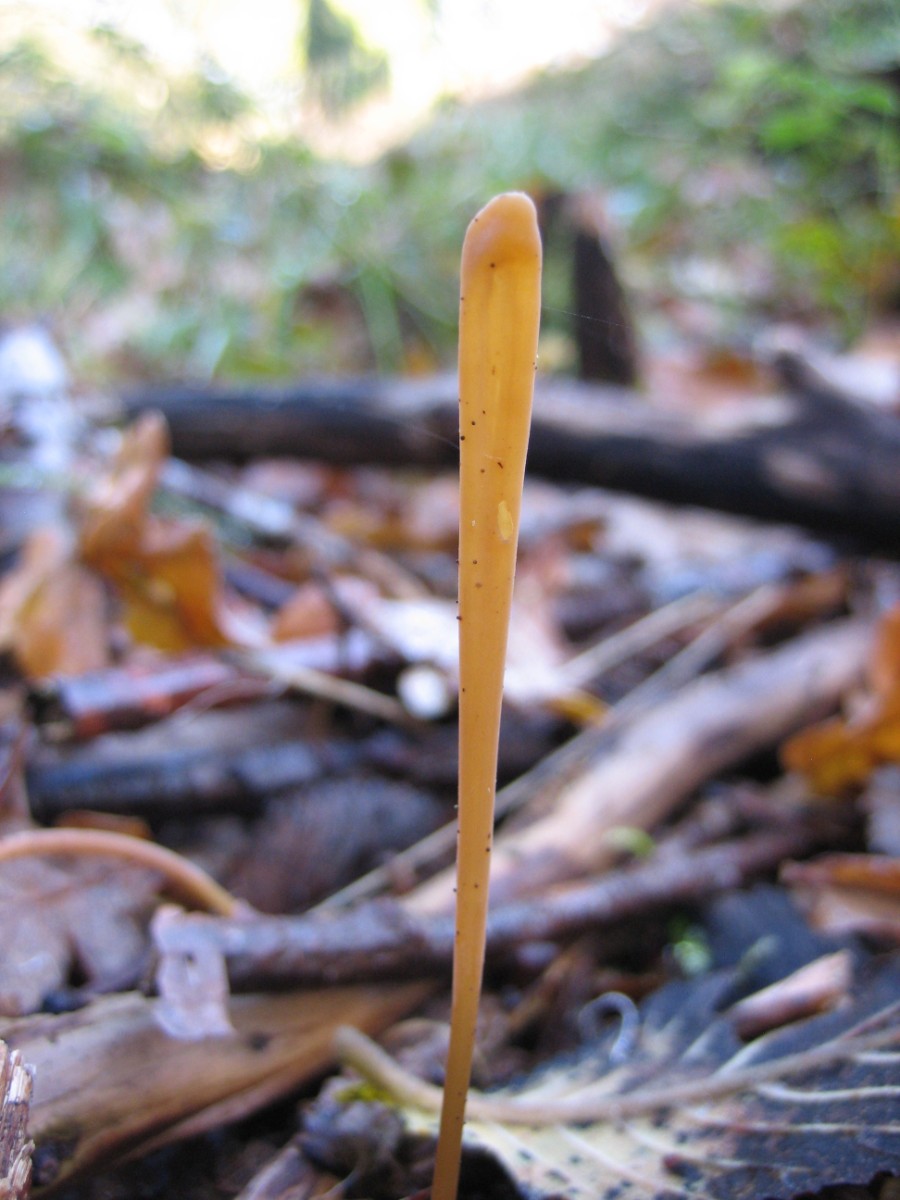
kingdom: Fungi
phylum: Basidiomycota
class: Agaricomycetes
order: Agaricales
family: Typhulaceae
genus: Typhula
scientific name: Typhula fistulosa
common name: pibet rørkølle
